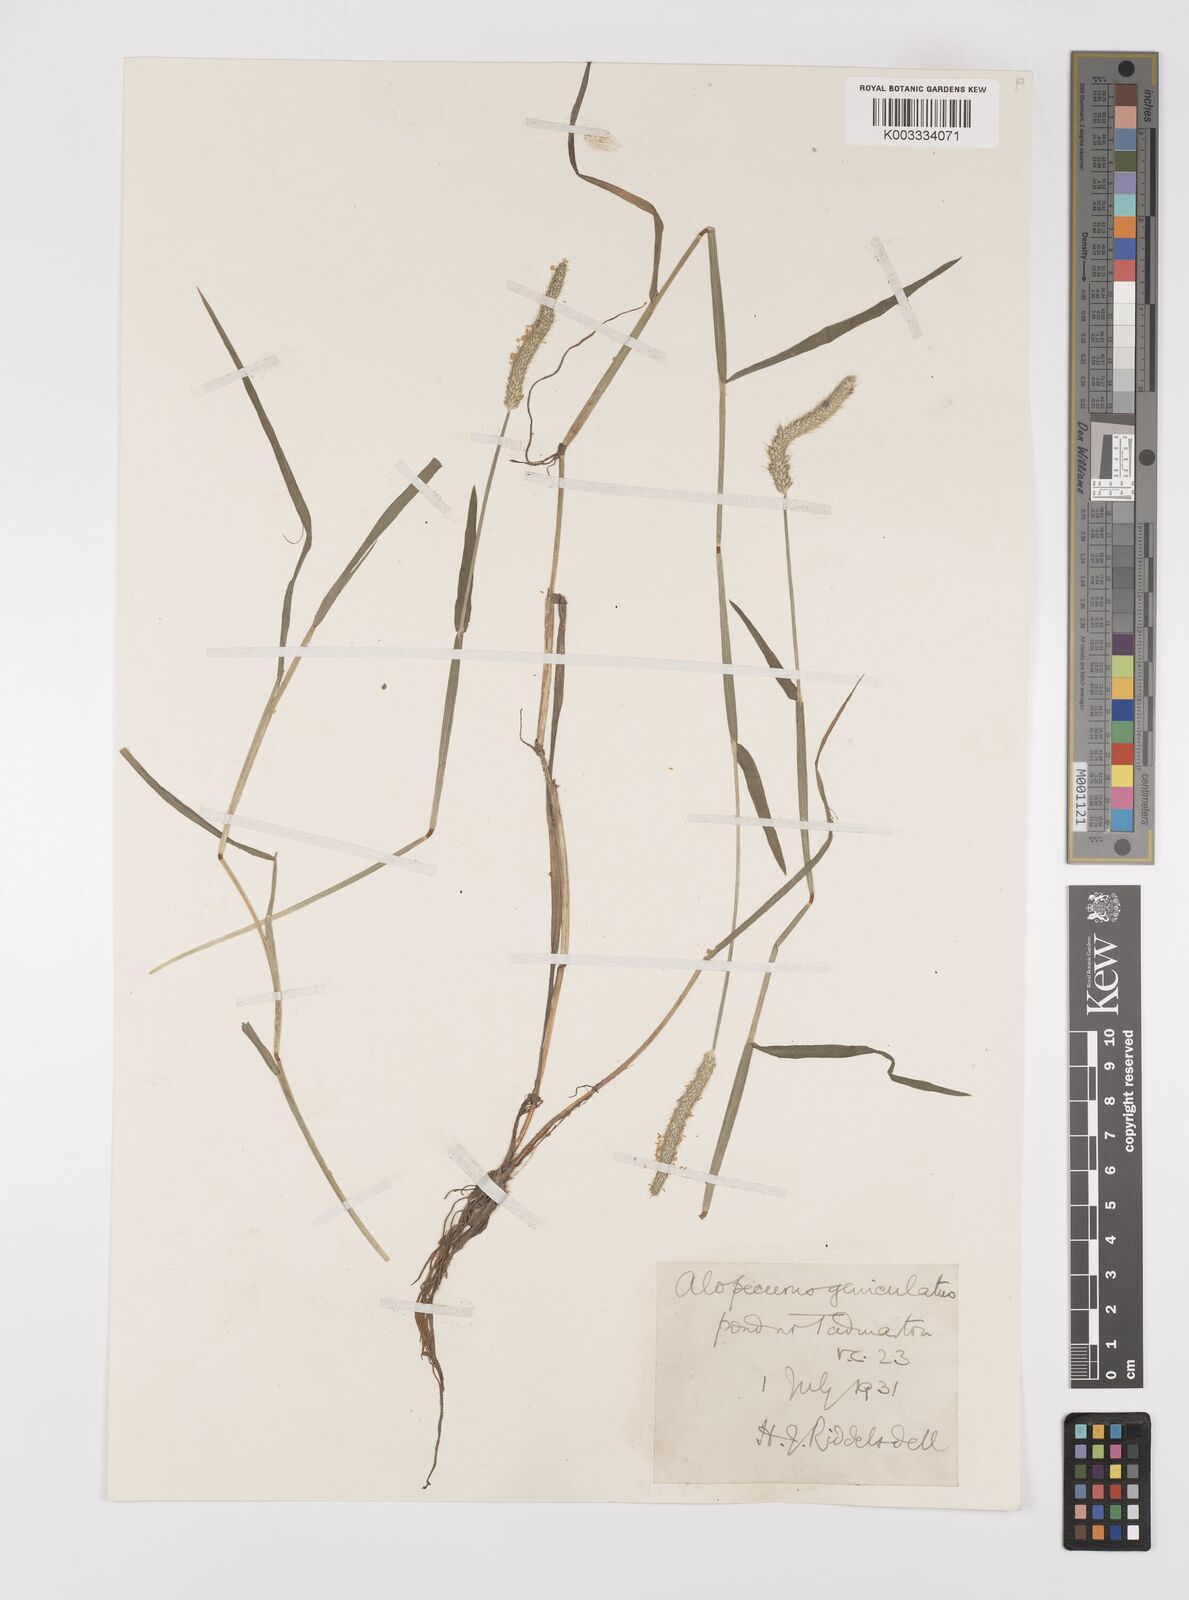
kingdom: Plantae
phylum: Tracheophyta
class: Liliopsida
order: Poales
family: Poaceae
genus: Alopecurus
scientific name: Alopecurus geniculatus
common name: Water foxtail
